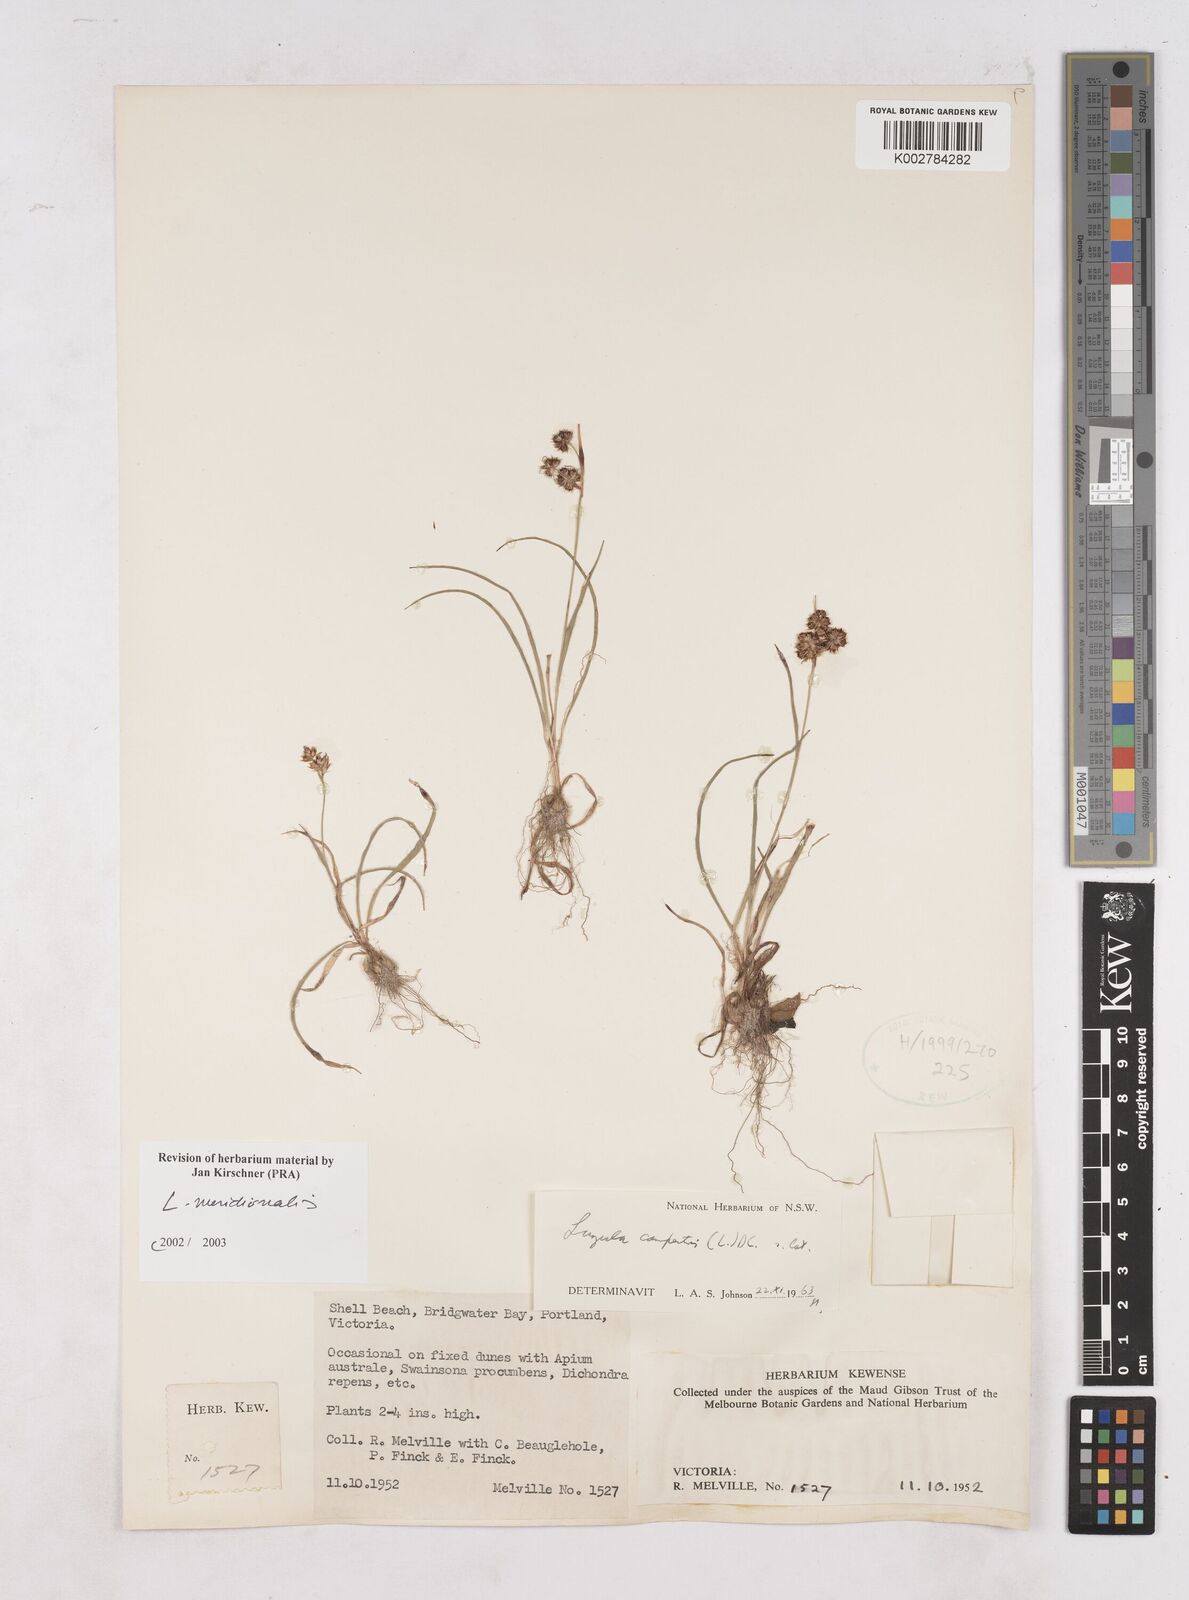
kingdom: Plantae
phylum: Tracheophyta
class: Liliopsida
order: Poales
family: Juncaceae
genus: Luzula
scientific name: Luzula meridionalis
